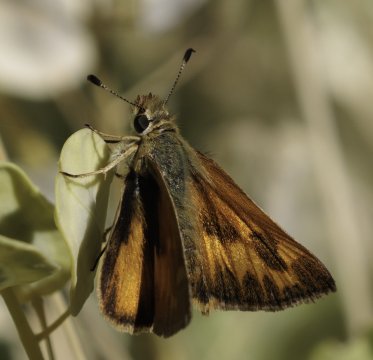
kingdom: Animalia
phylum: Arthropoda
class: Insecta
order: Lepidoptera
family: Hesperiidae
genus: Ochlodes
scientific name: Ochlodes sylvanoides
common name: Woodland Skipper
